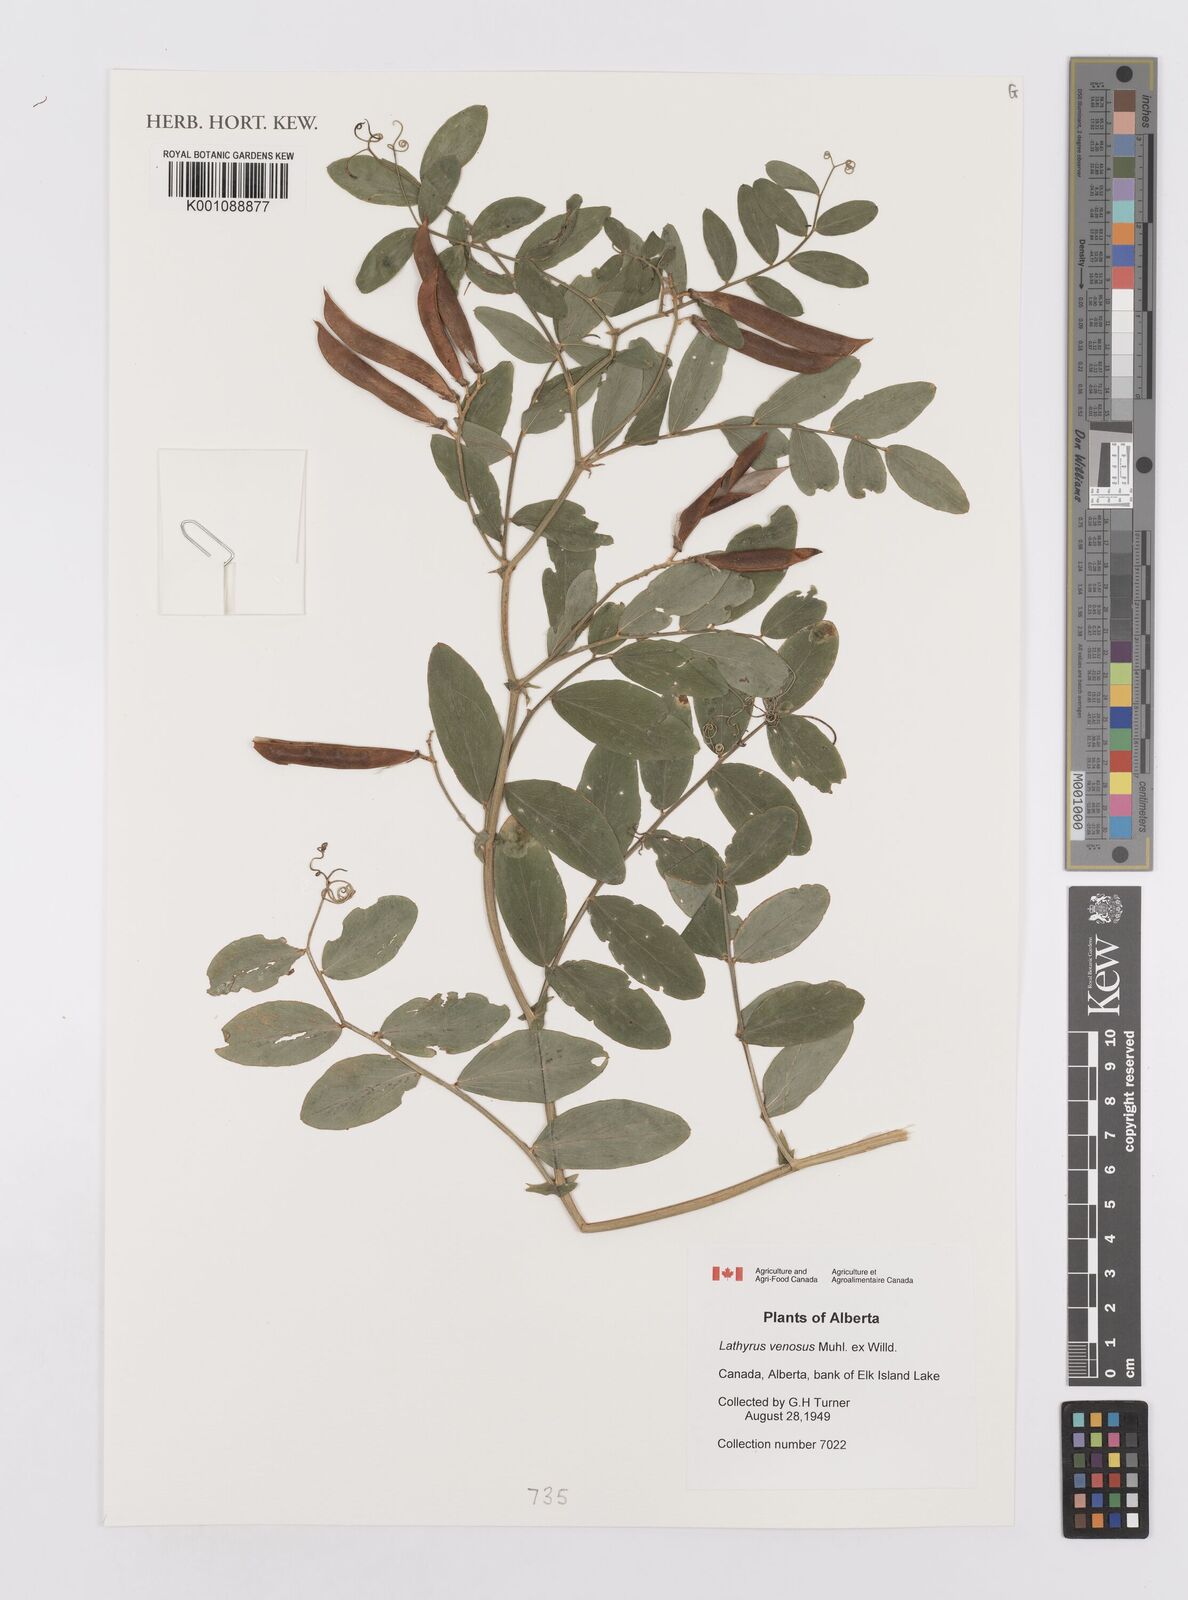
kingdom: Plantae
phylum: Tracheophyta
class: Magnoliopsida
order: Fabales
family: Fabaceae
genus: Lathyrus
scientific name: Lathyrus
